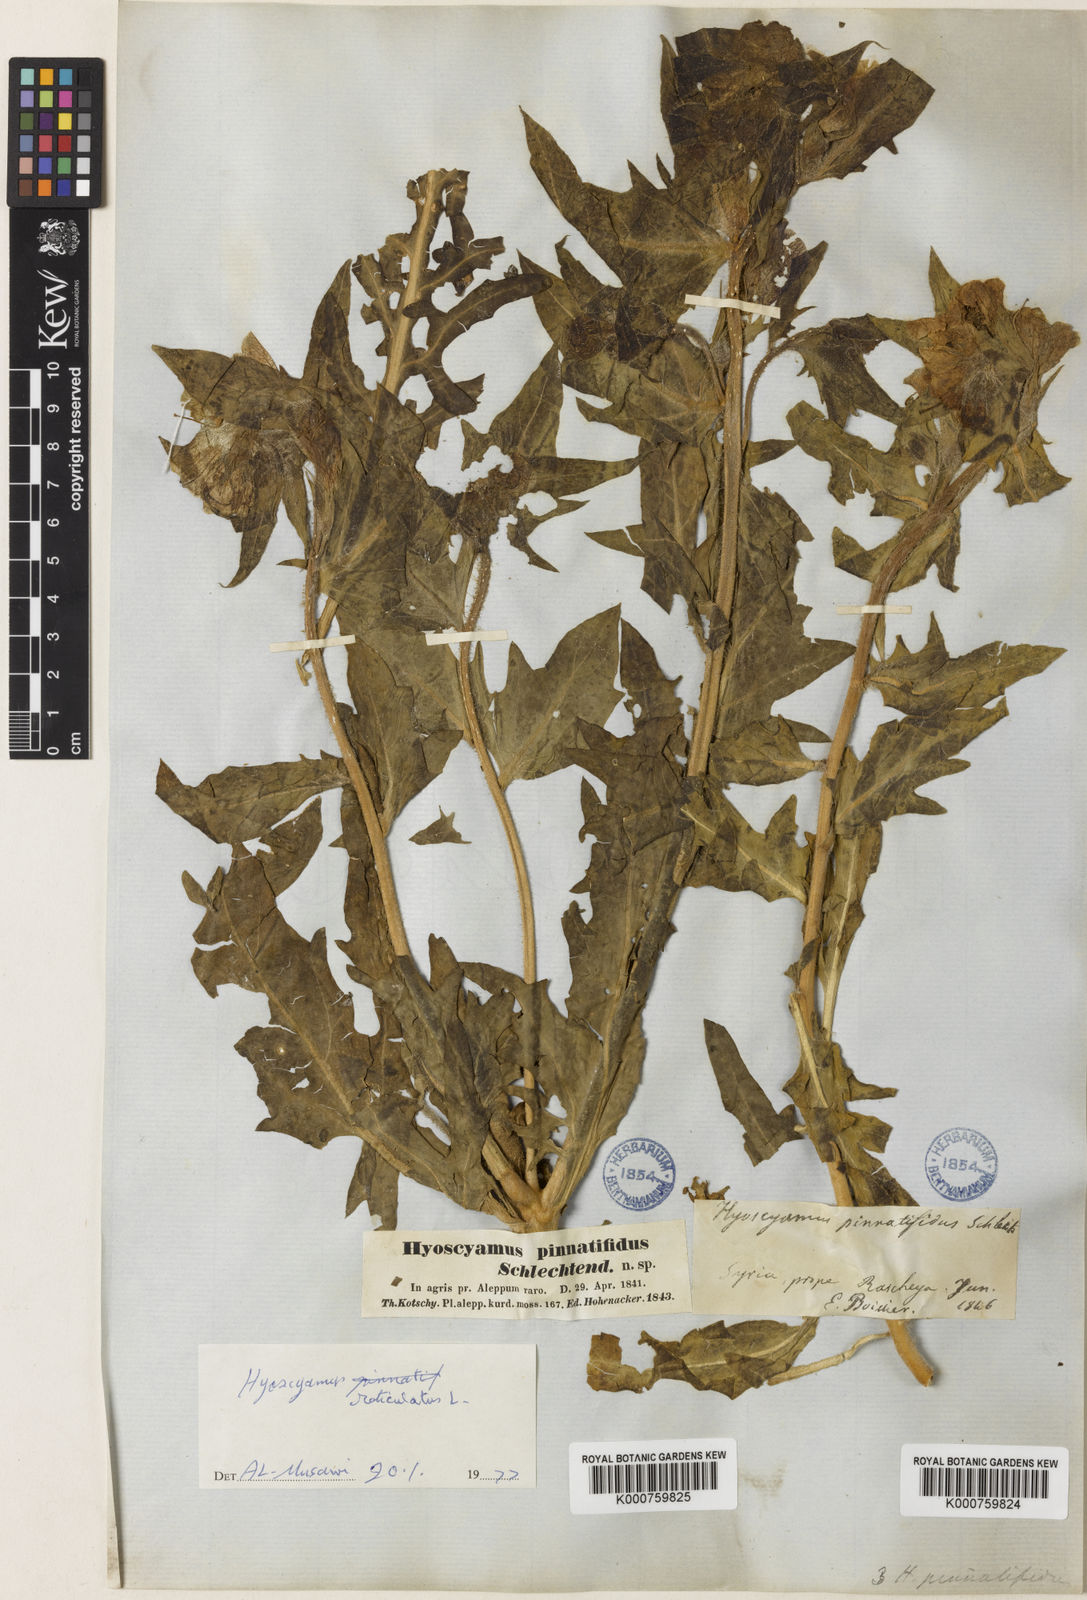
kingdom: Plantae
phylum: Tracheophyta
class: Magnoliopsida
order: Solanales
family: Solanaceae
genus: Hyoscyamus
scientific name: Hyoscyamus reticulatus
